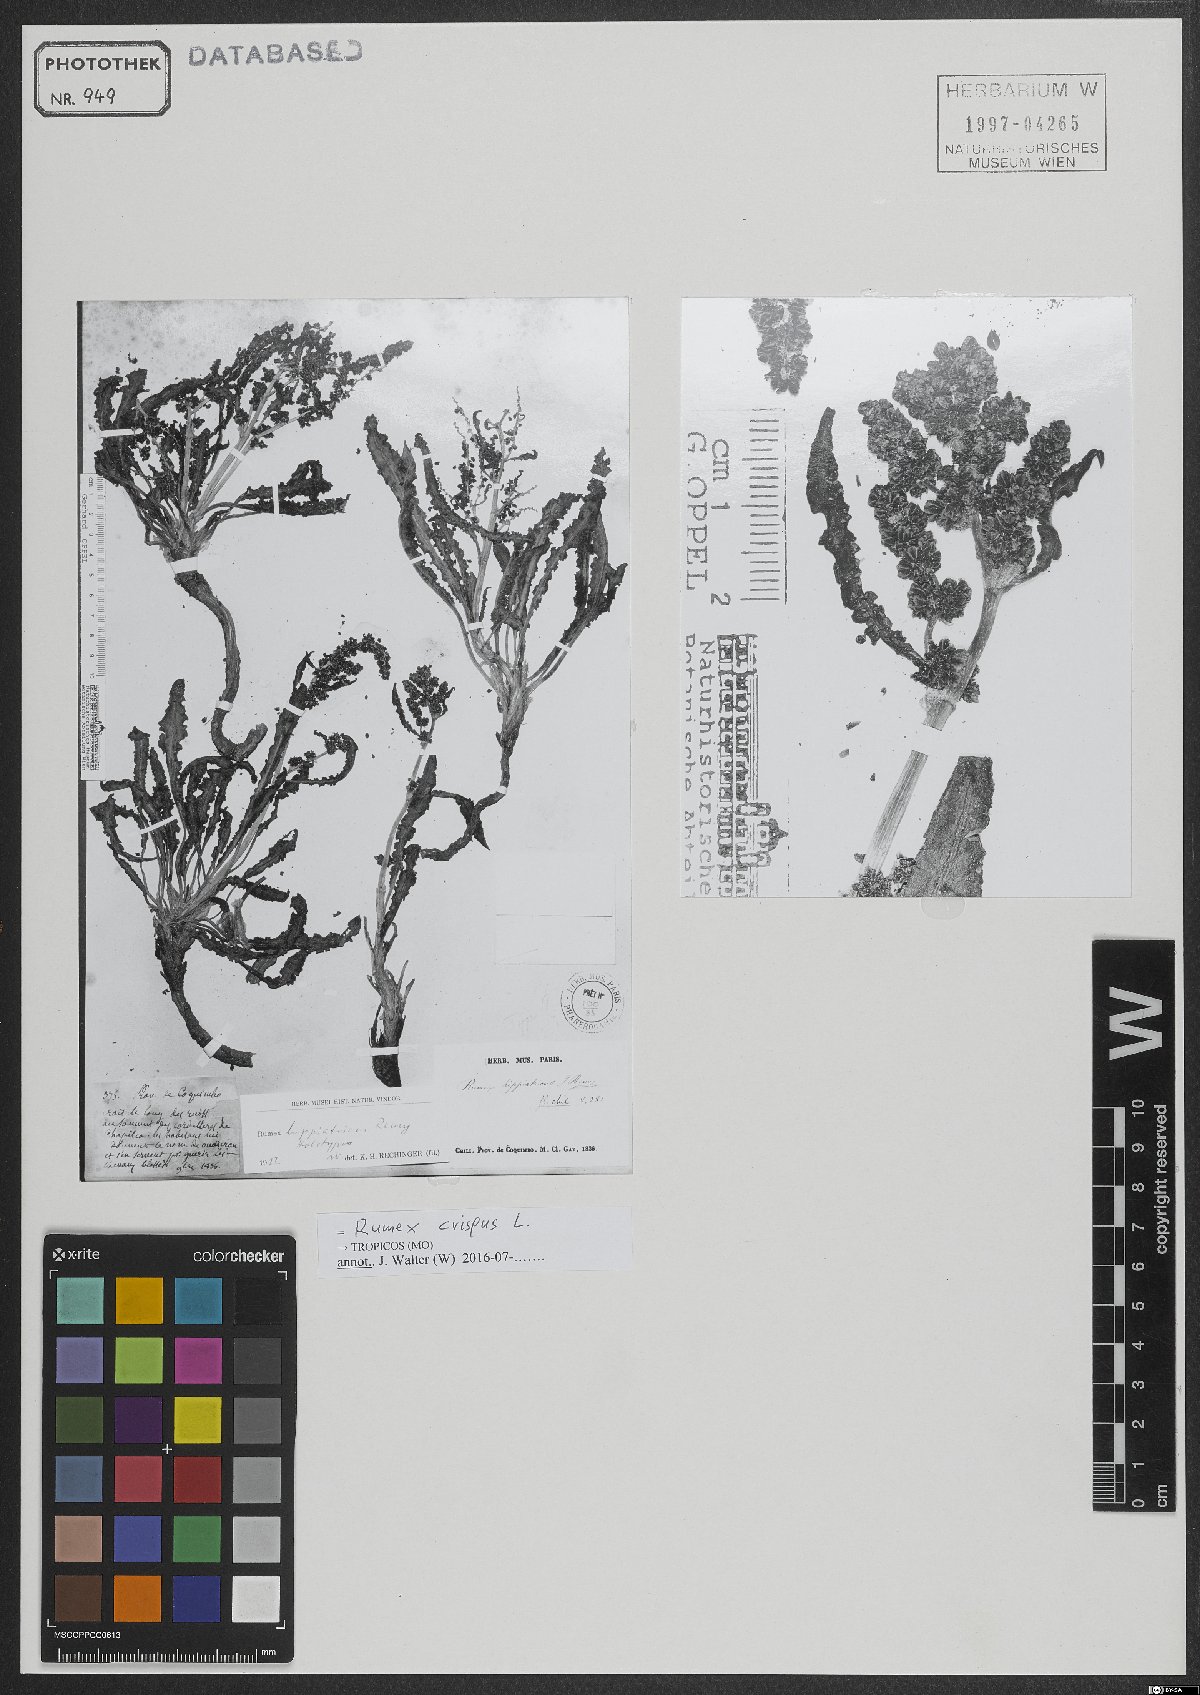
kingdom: Plantae
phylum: Tracheophyta
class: Magnoliopsida
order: Caryophyllales
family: Polygonaceae
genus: Rumex
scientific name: Rumex crispus
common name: Curled dock
